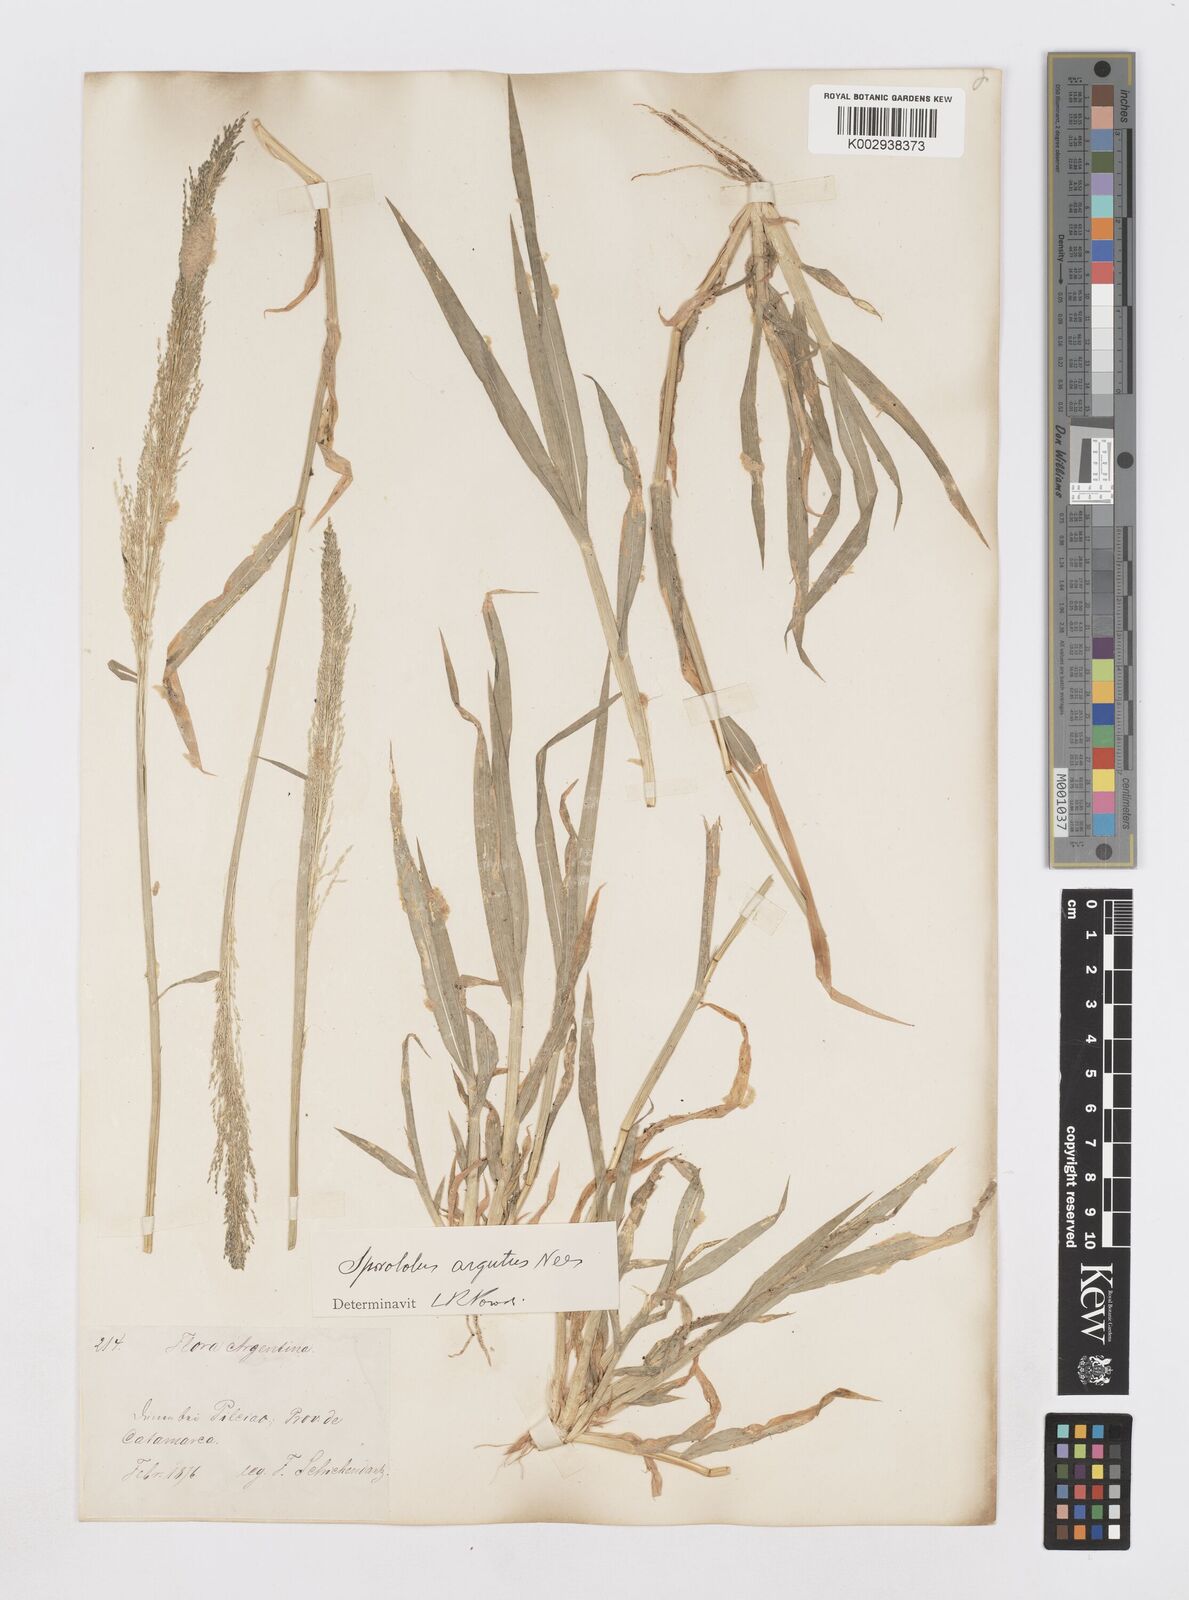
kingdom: Plantae
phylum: Tracheophyta
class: Liliopsida
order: Poales
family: Poaceae
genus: Sporobolus
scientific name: Sporobolus pyramidatus
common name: Whorled dropseed
